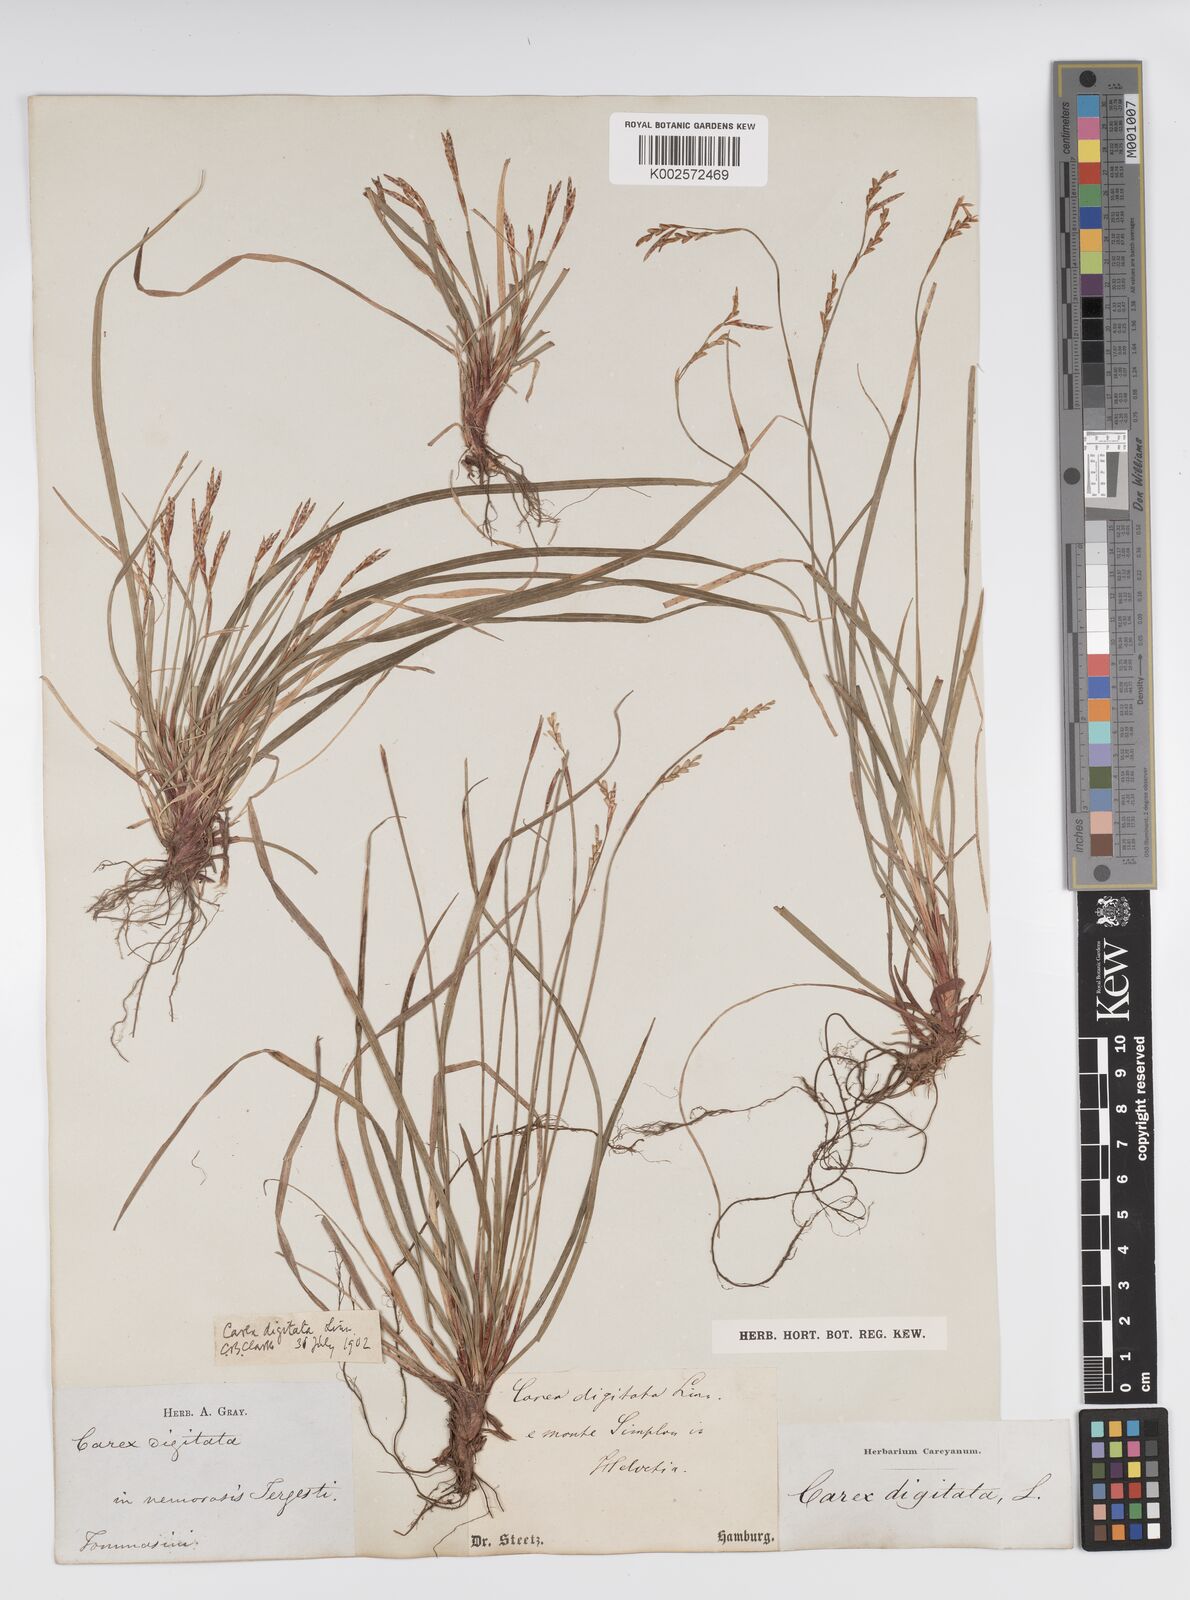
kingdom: Plantae
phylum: Tracheophyta
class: Liliopsida
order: Poales
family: Cyperaceae
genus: Carex
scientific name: Carex digitata
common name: Fingered sedge
